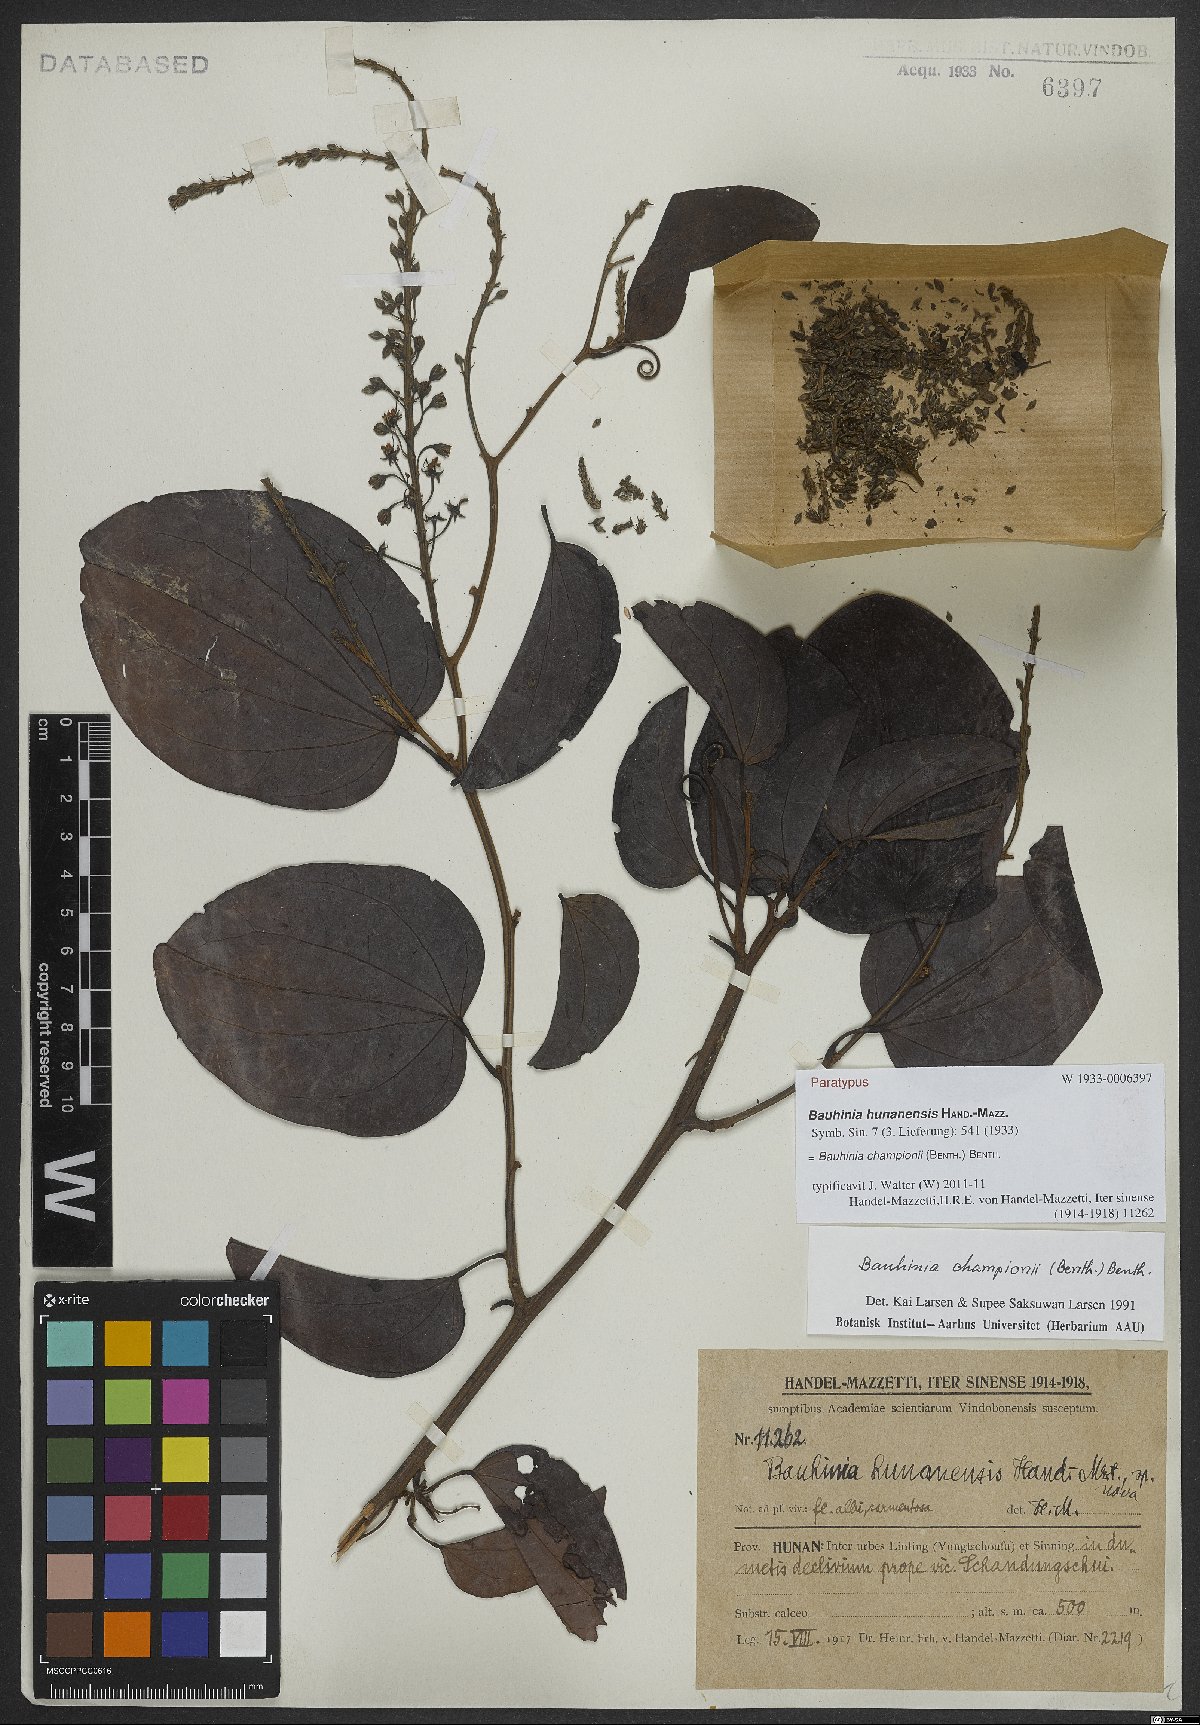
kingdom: Plantae
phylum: Tracheophyta
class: Magnoliopsida
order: Fabales
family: Fabaceae
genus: Phanera
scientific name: Phanera championii
